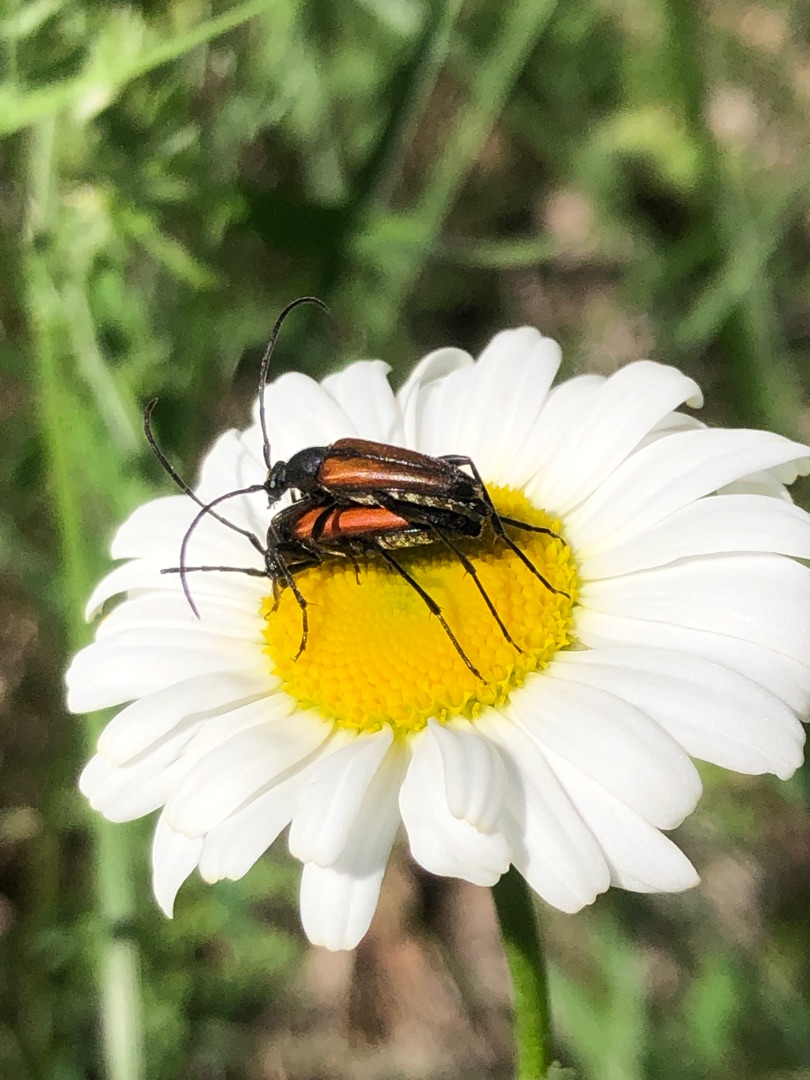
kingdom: Animalia
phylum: Arthropoda
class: Insecta
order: Coleoptera
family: Cerambycidae
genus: Stenurella
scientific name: Stenurella melanura
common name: Sortsømmet blomsterbuk
